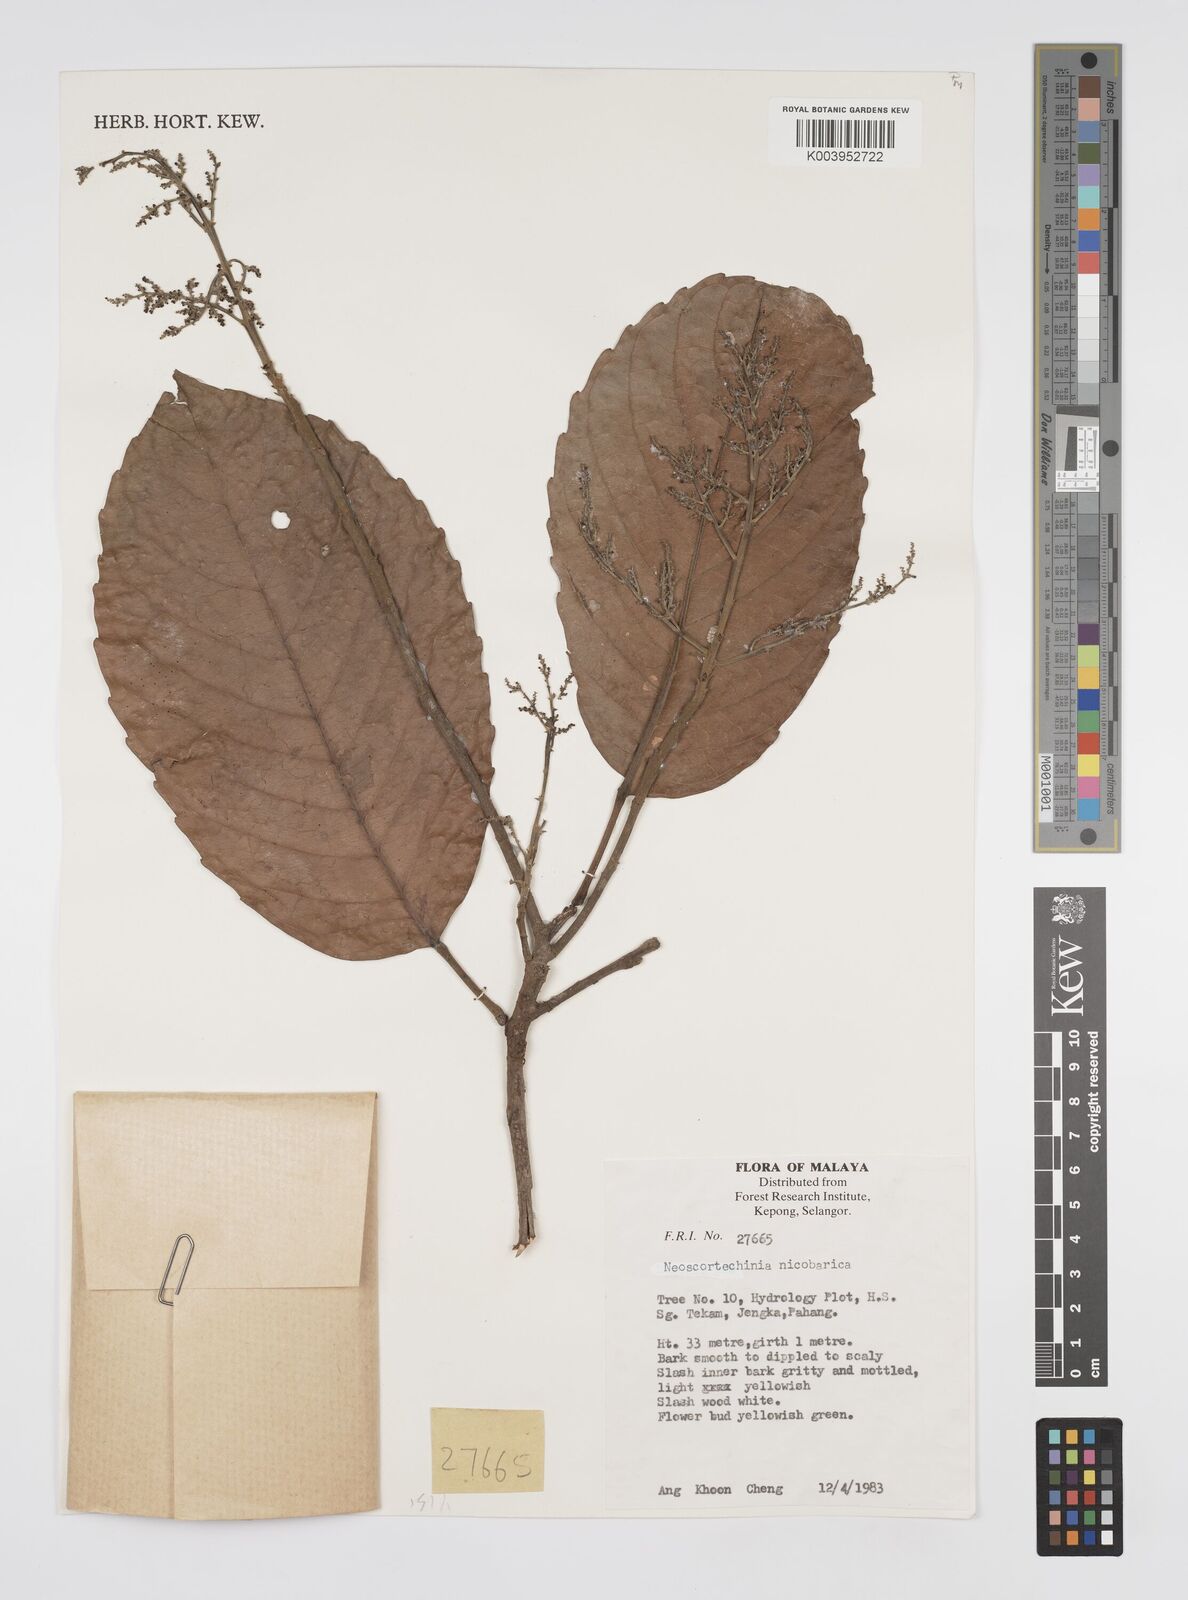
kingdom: Plantae
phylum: Tracheophyta
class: Magnoliopsida
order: Malpighiales
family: Euphorbiaceae
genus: Neoscortechinia
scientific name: Neoscortechinia nicobarica
